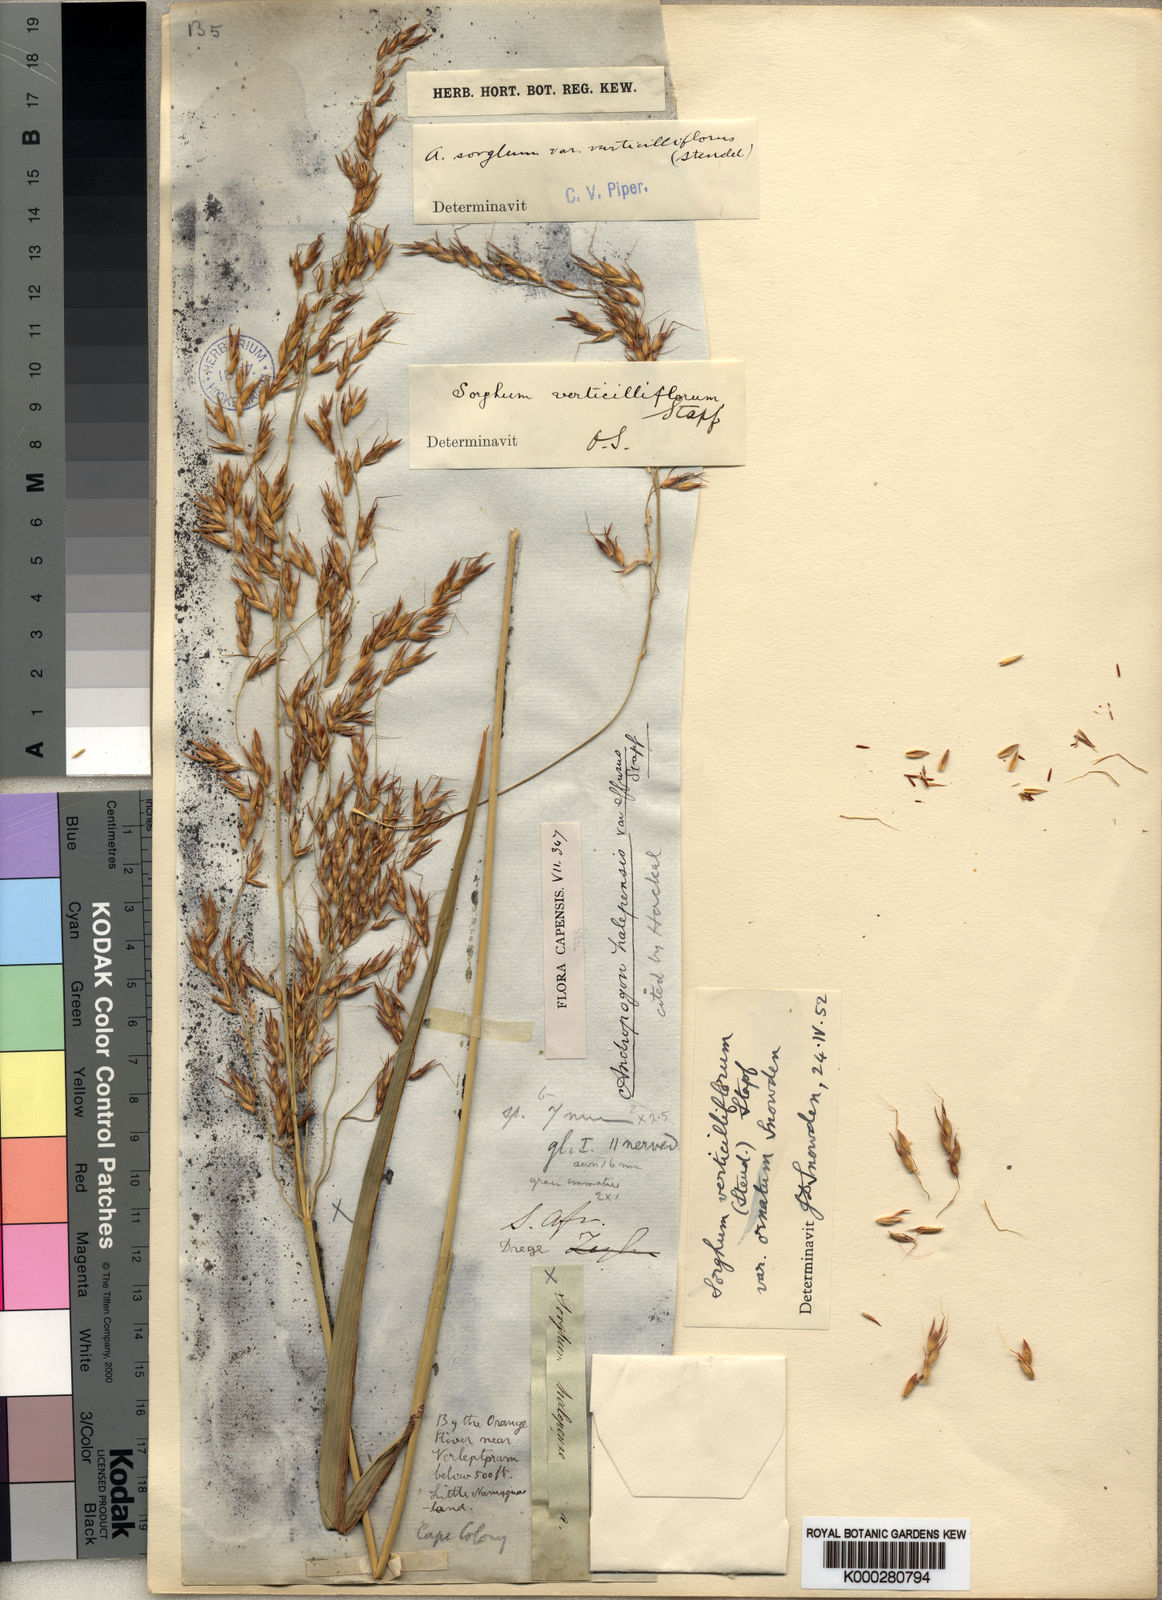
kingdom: Plantae
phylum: Tracheophyta
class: Liliopsida
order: Poales
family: Poaceae
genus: Sorghum
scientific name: Sorghum arundinaceum
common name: Sorghum
